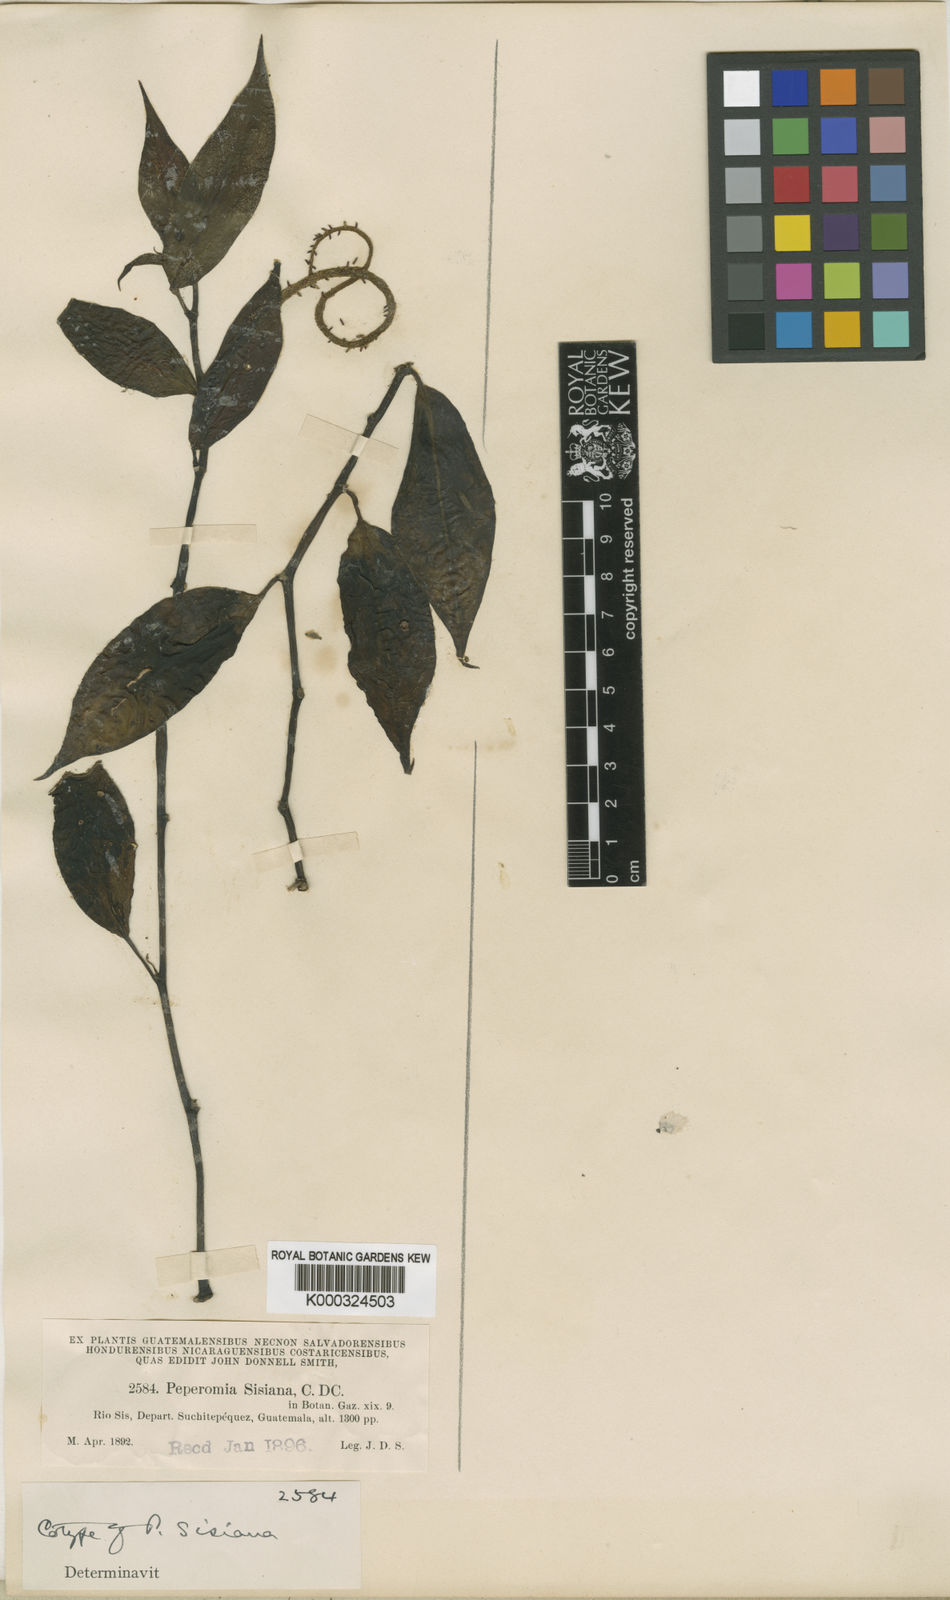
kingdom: Plantae
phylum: Tracheophyta
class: Magnoliopsida
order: Piperales
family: Piperaceae
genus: Peperomia
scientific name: Peperomia naranjoana
